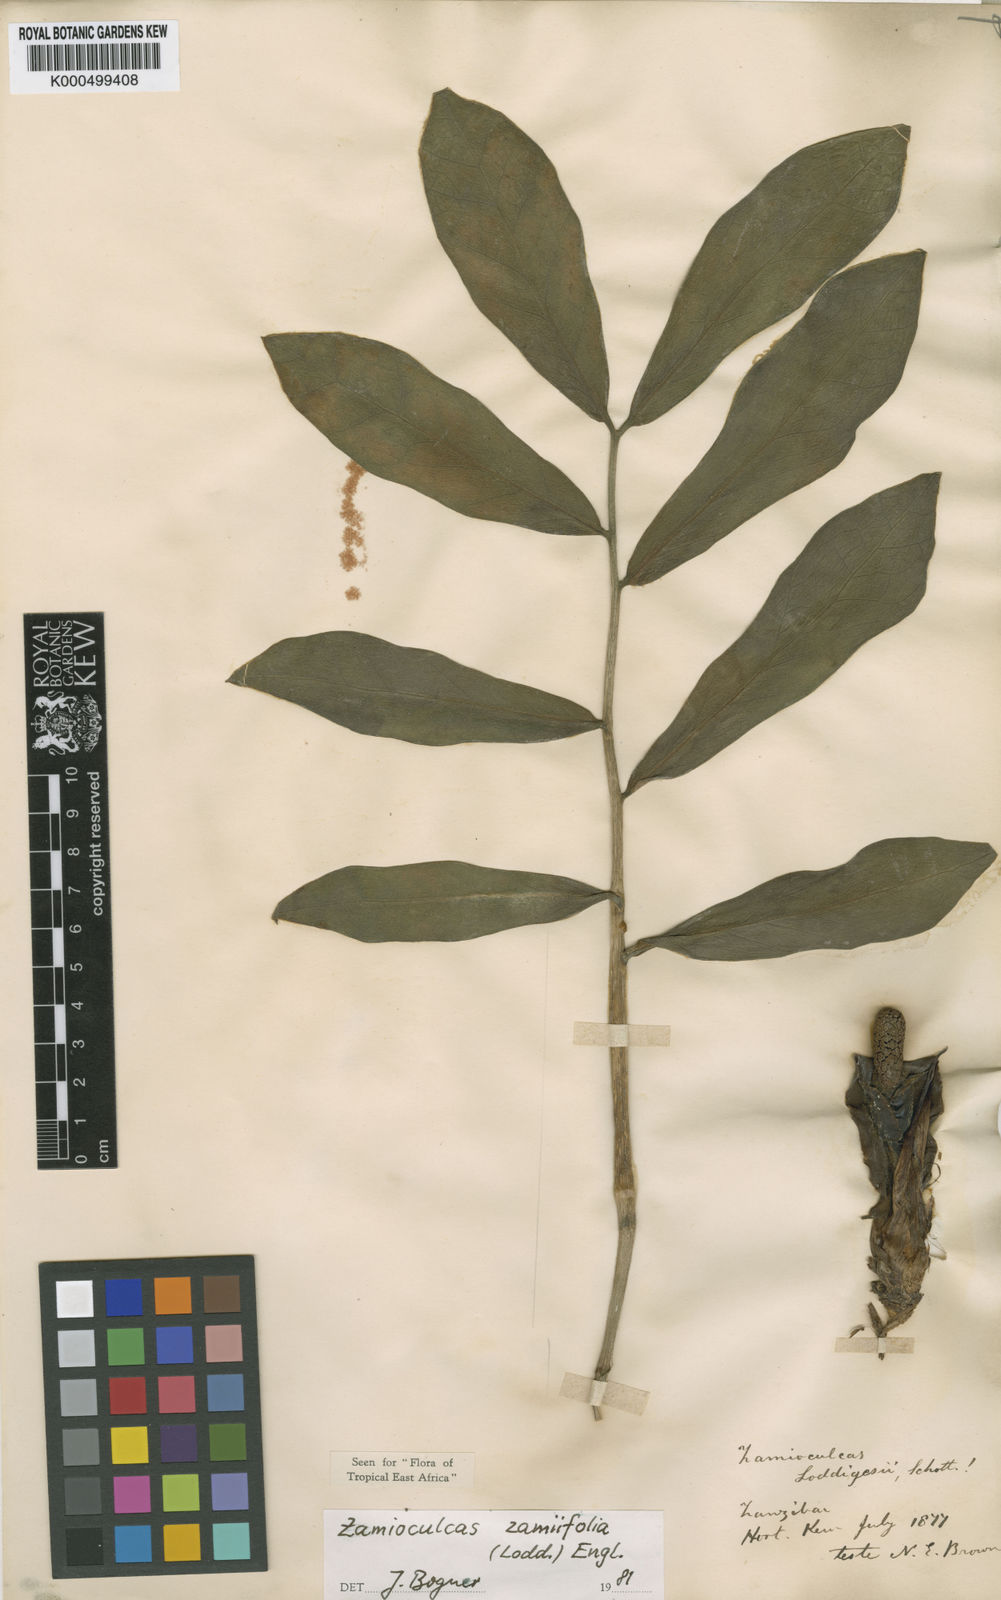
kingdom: Plantae
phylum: Tracheophyta
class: Liliopsida
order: Alismatales
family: Araceae
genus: Zamioculcas
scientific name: Zamioculcas zamiifolia
